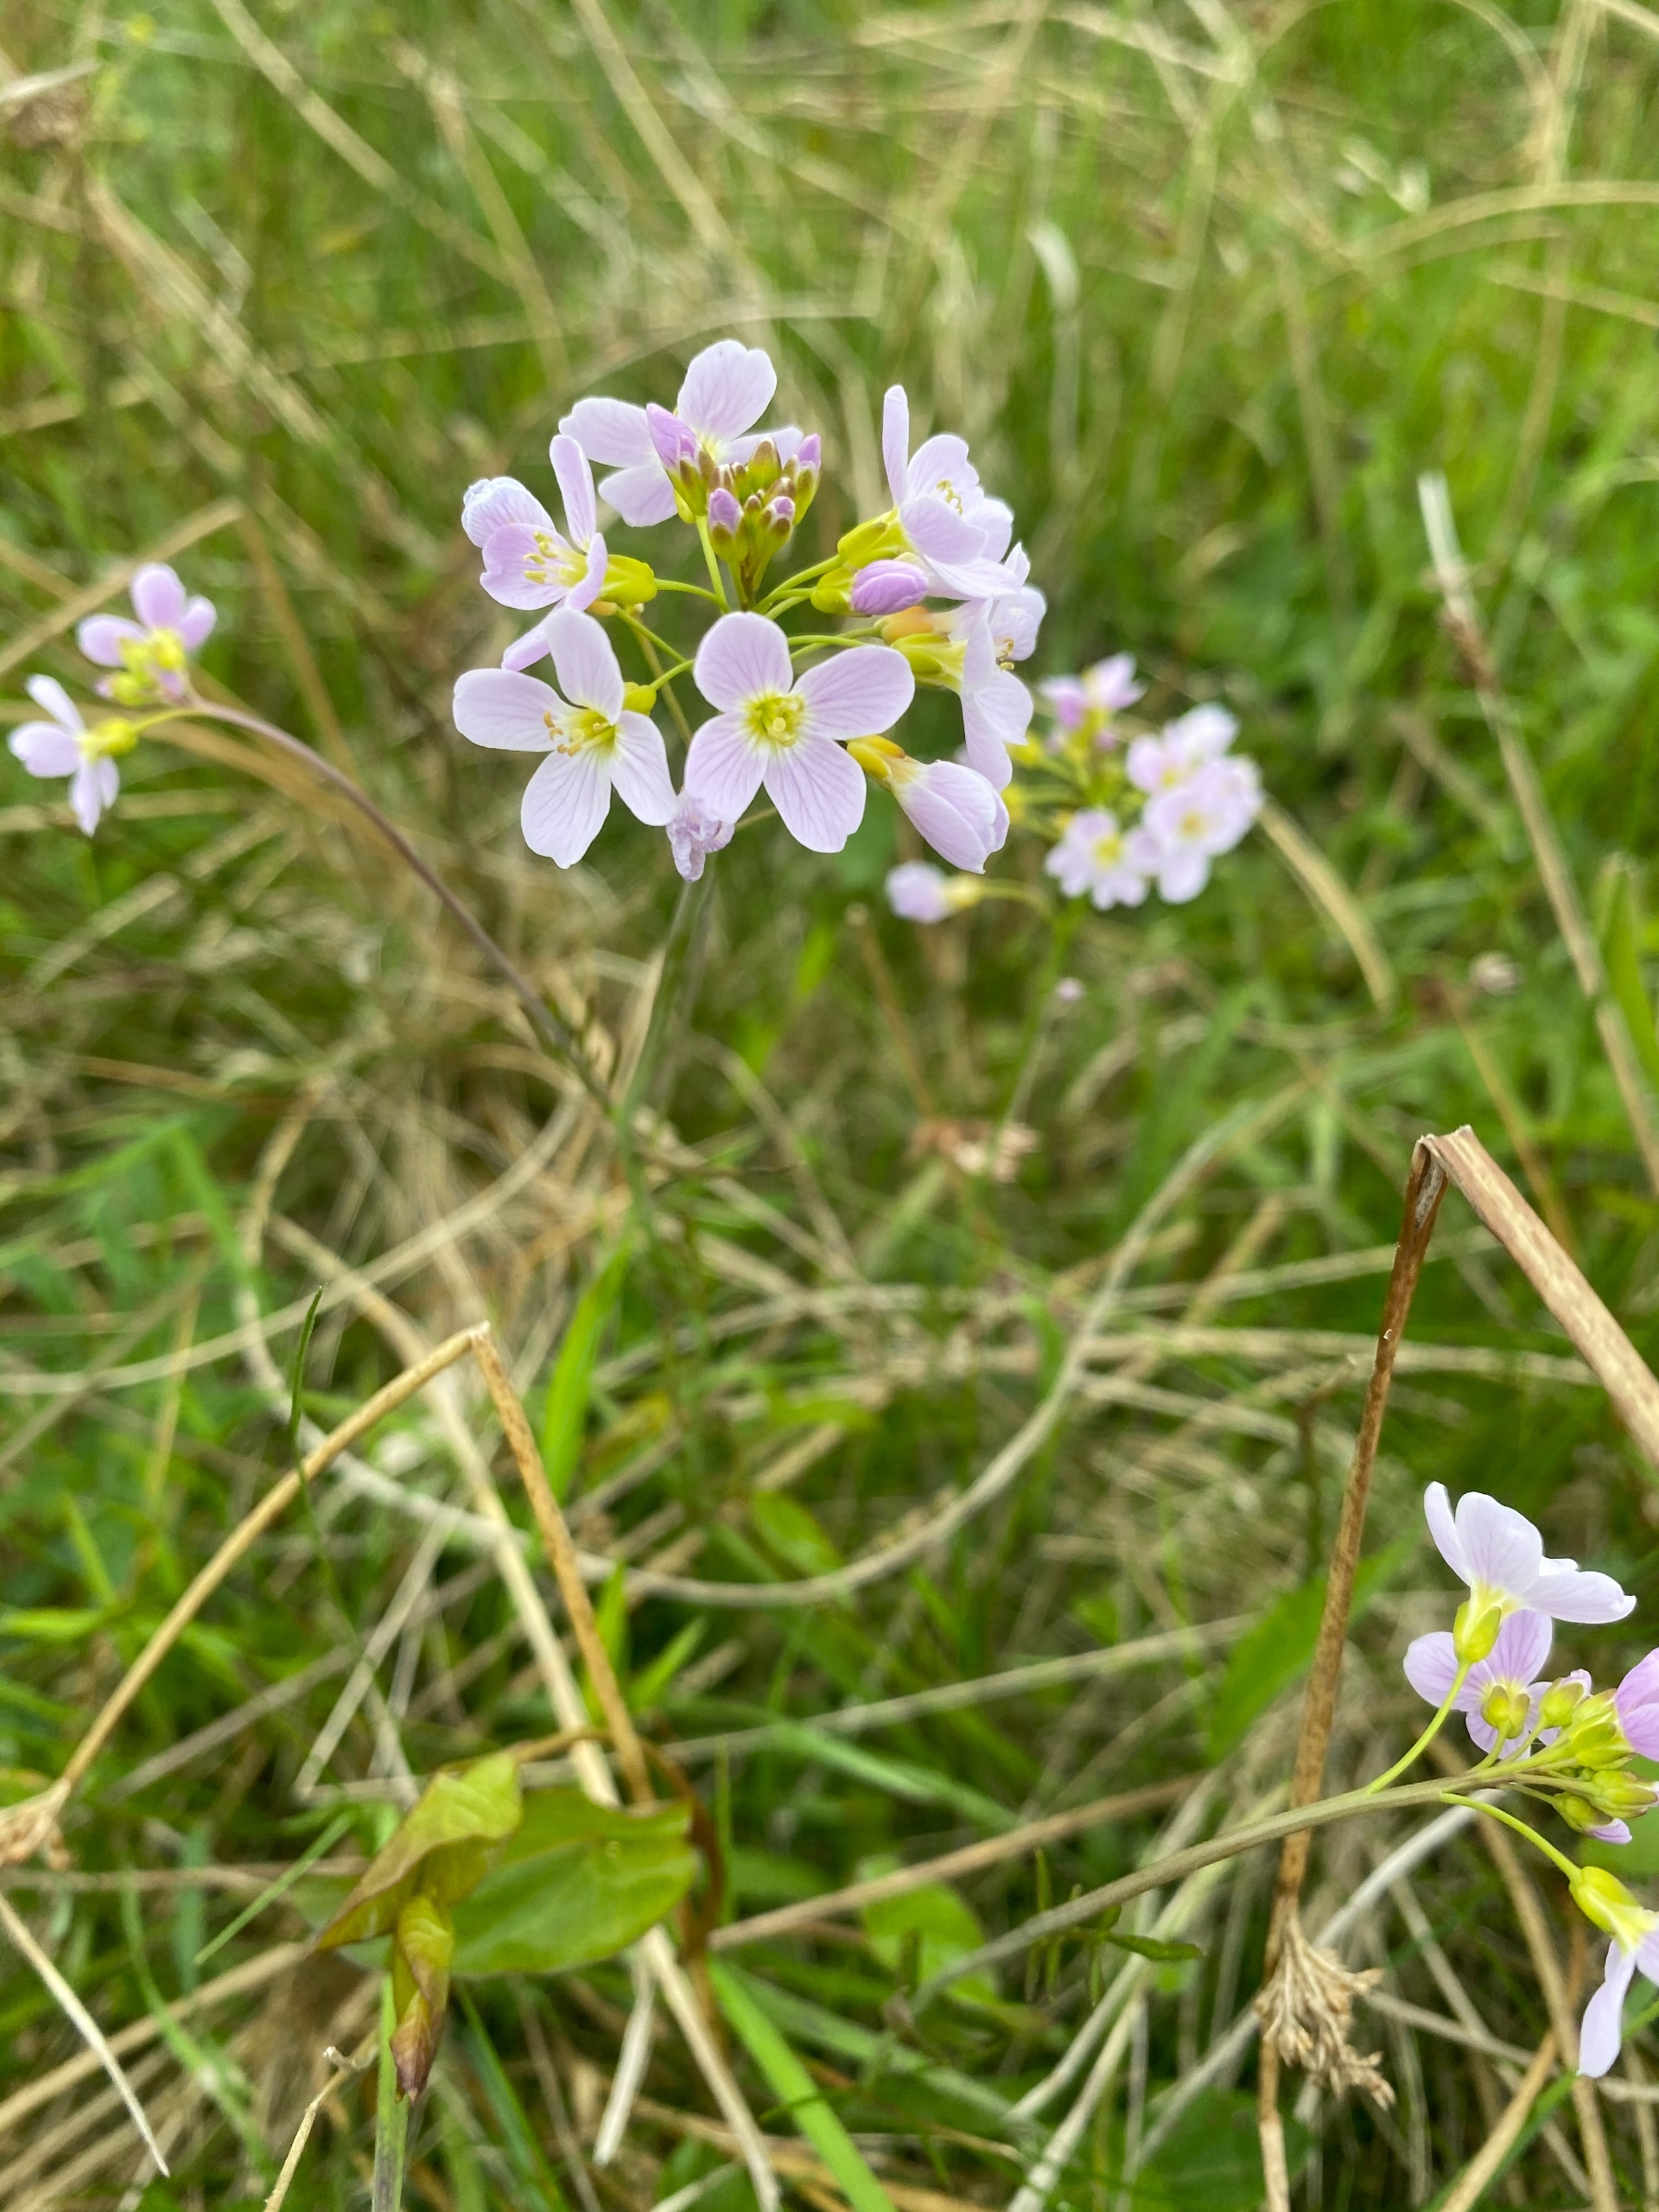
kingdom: Plantae
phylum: Tracheophyta
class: Magnoliopsida
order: Brassicales
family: Brassicaceae
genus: Cardamine
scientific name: Cardamine pratensis
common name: Engkarse
